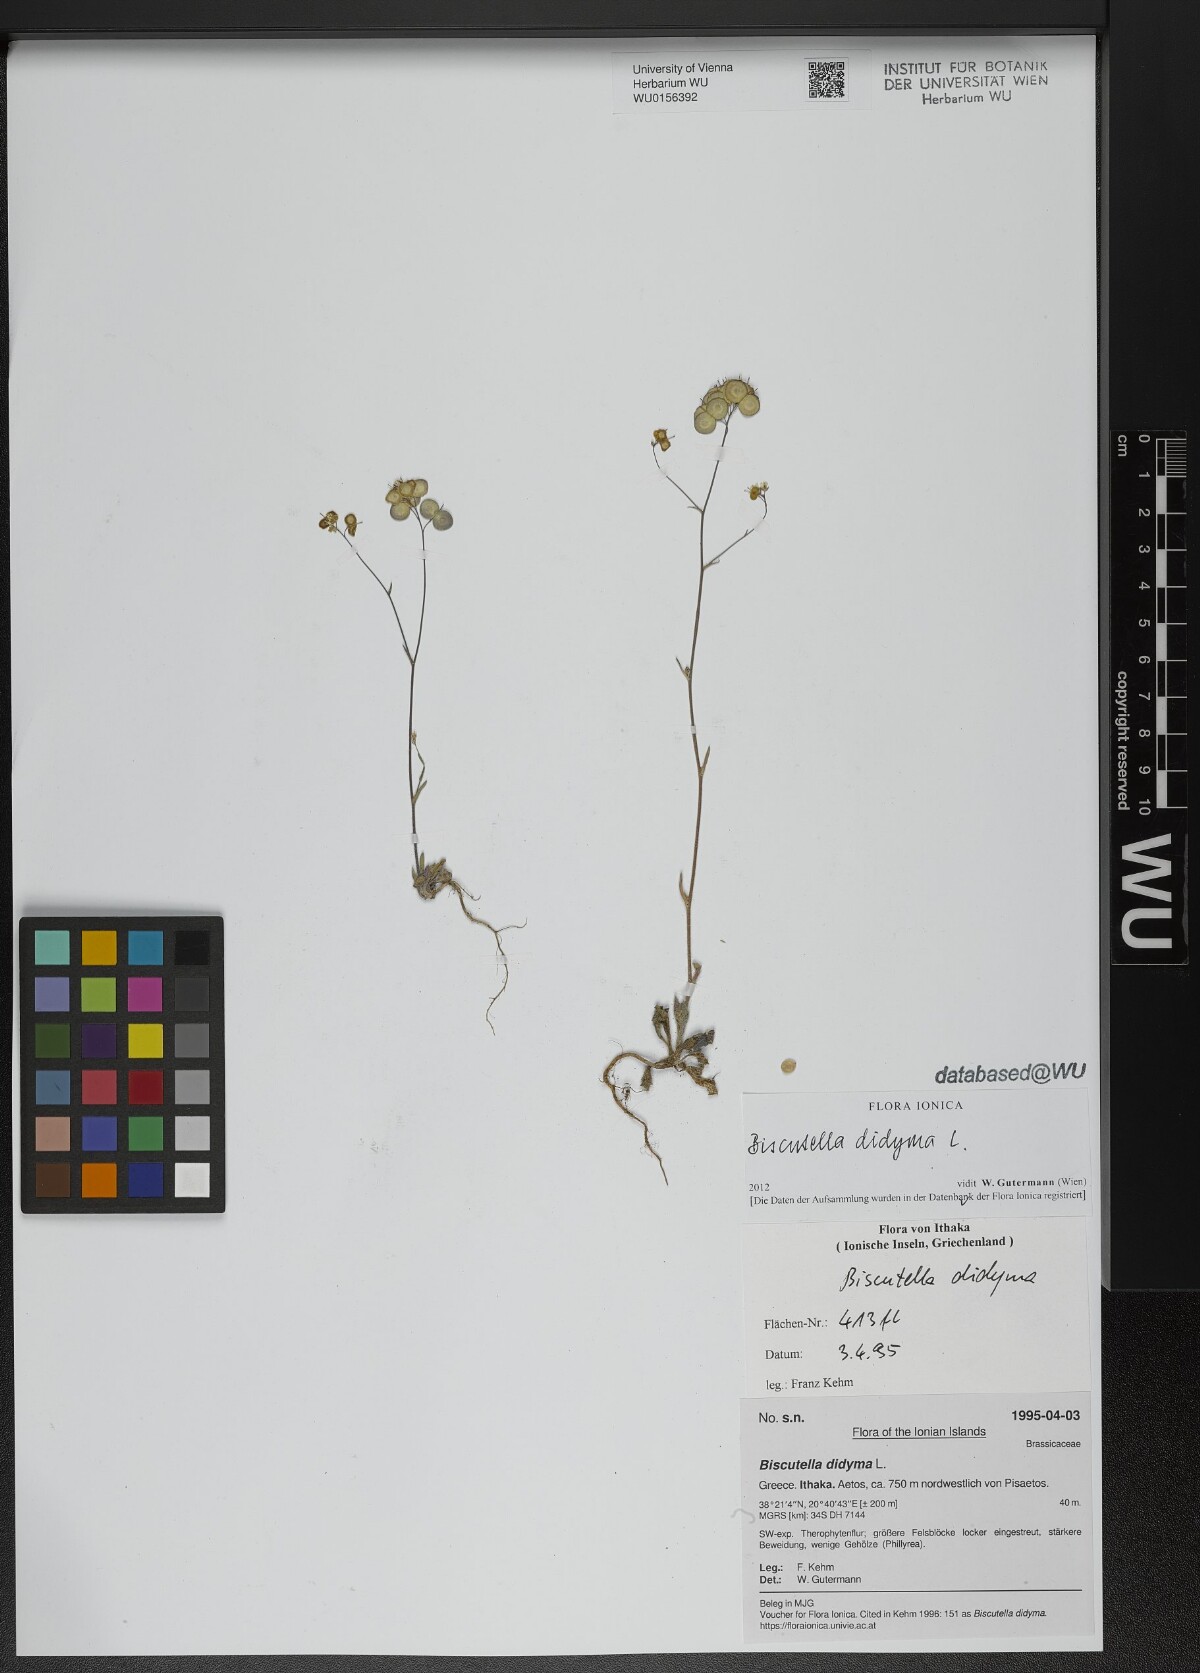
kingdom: Plantae
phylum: Tracheophyta
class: Magnoliopsida
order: Brassicales
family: Brassicaceae
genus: Biscutella
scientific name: Biscutella didyma
